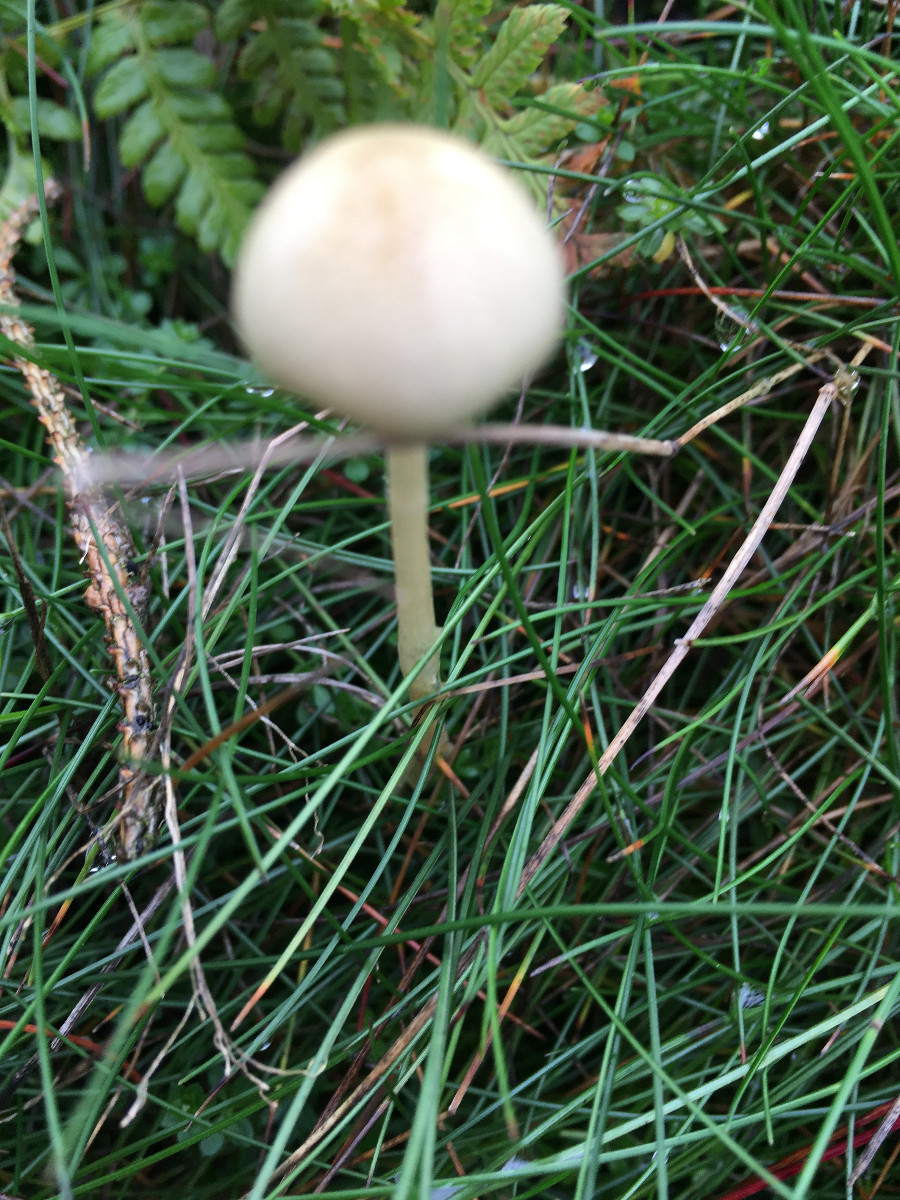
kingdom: Fungi
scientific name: Fungi
